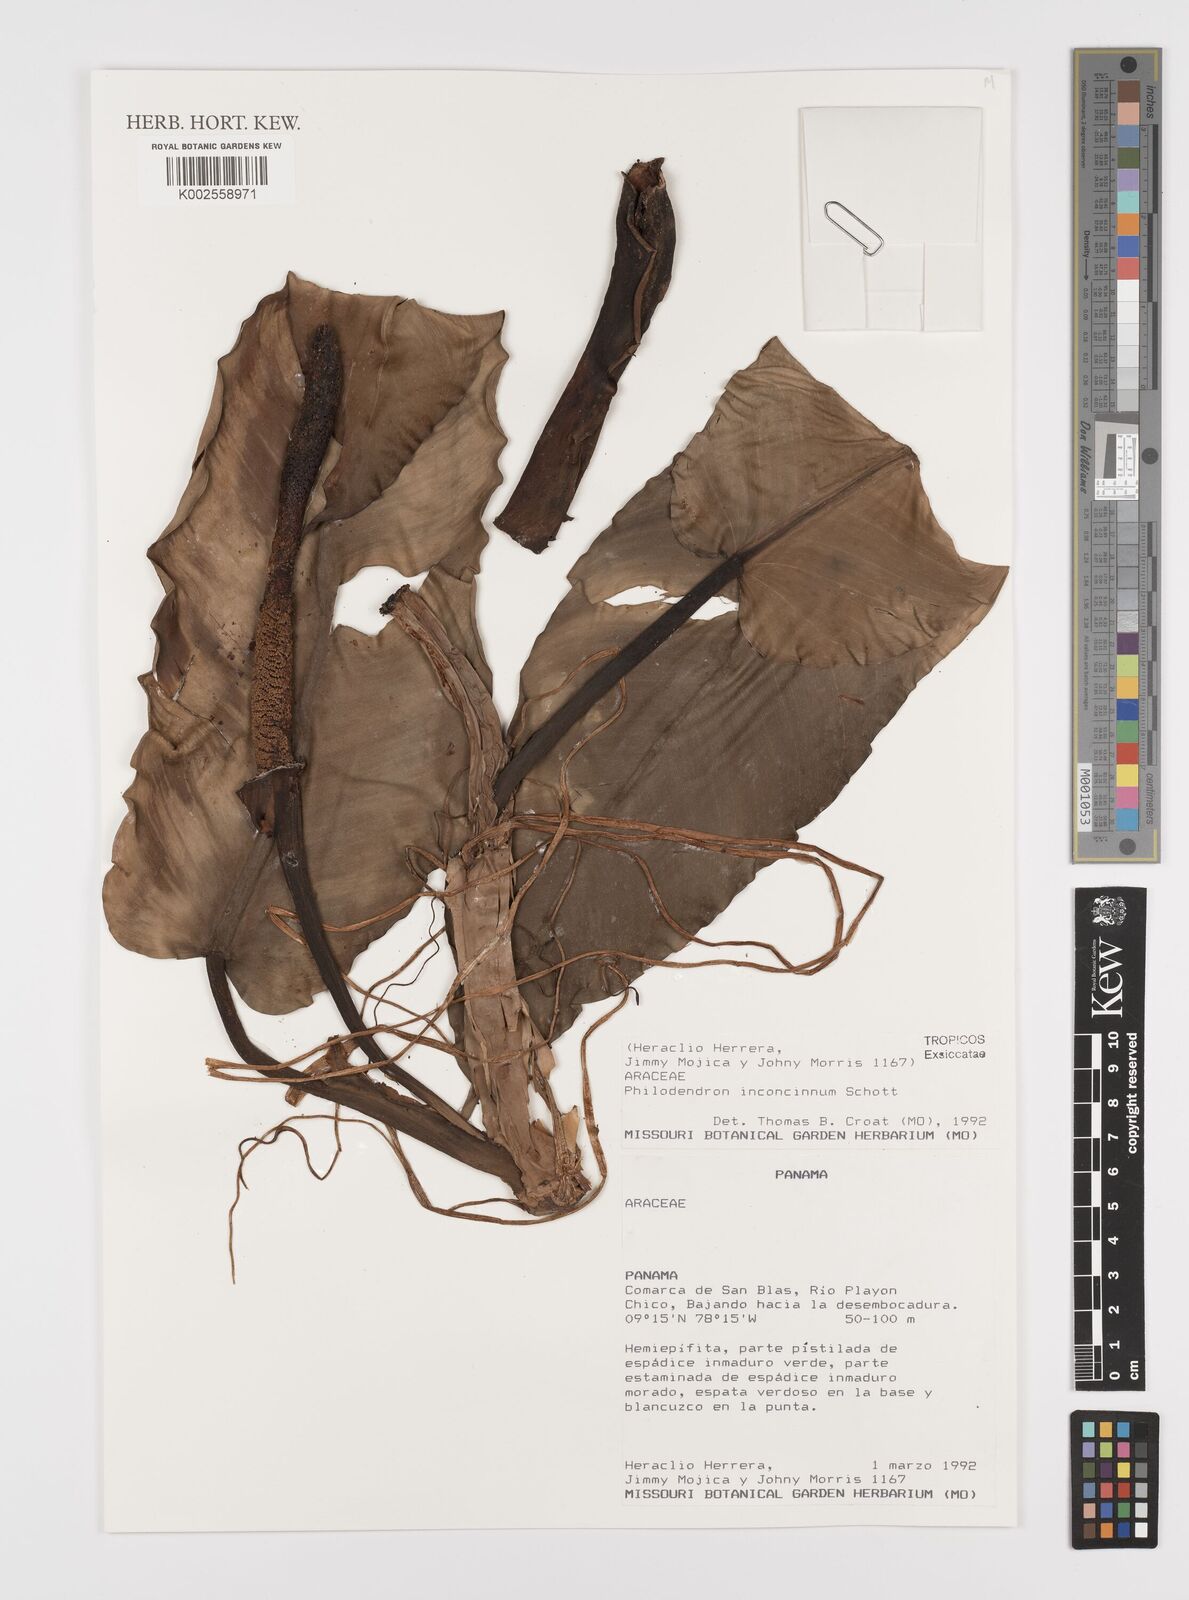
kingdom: Plantae
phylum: Tracheophyta
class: Liliopsida
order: Alismatales
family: Araceae
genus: Philodendron
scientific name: Philodendron inconcinnum
